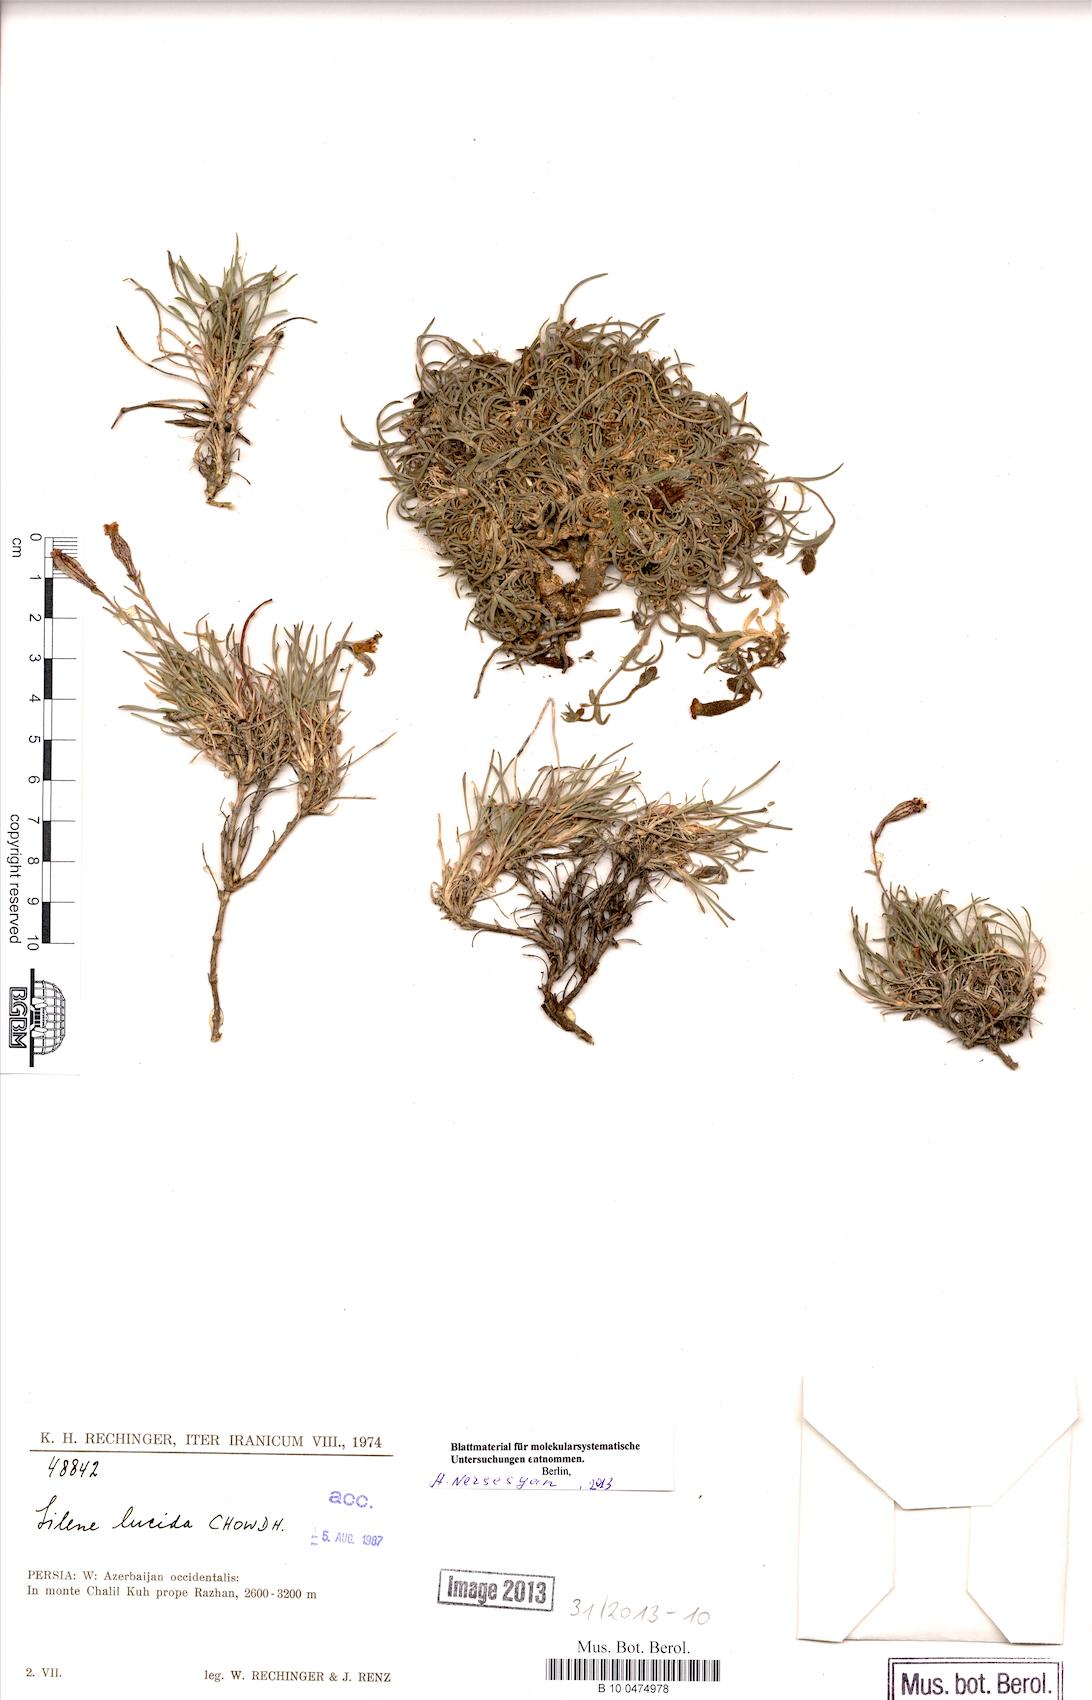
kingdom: Plantae
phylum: Tracheophyta
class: Magnoliopsida
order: Caryophyllales
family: Caryophyllaceae
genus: Silene
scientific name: Silene lucida
